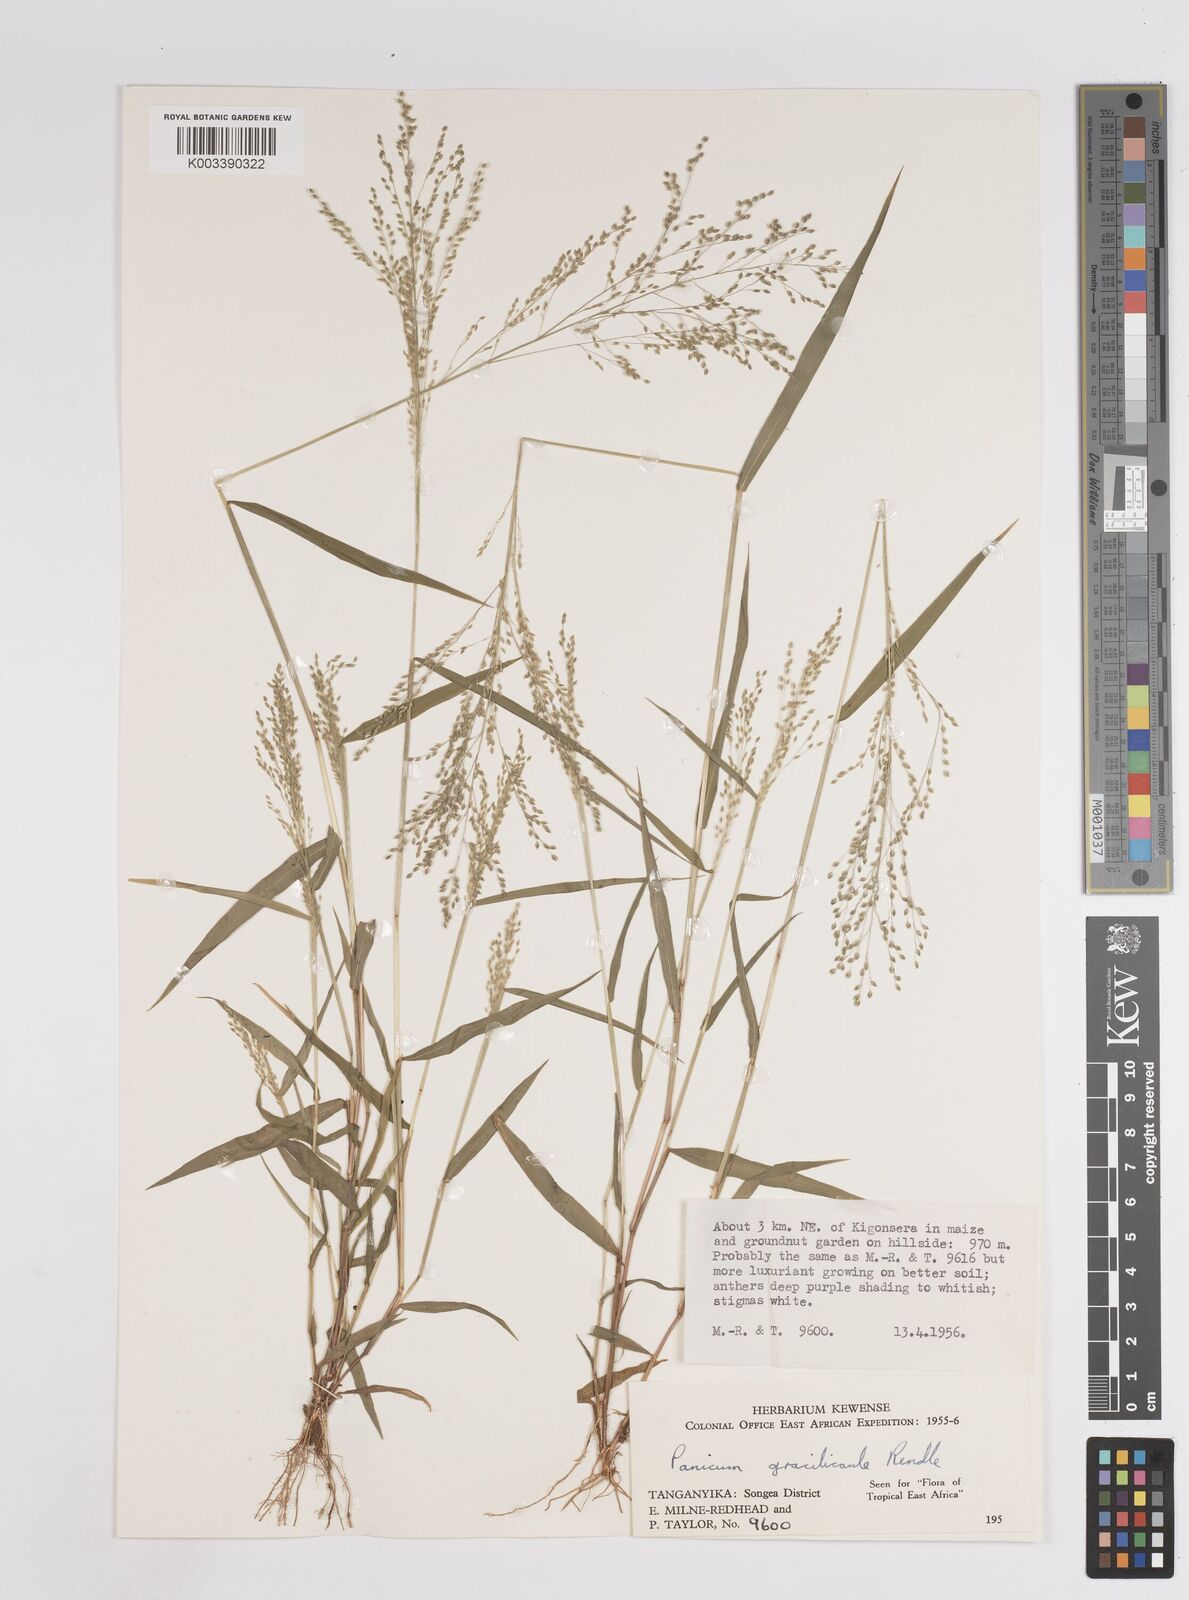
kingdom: Plantae
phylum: Tracheophyta
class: Liliopsida
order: Poales
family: Poaceae
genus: Trichanthecium
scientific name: Trichanthecium gracilicaule
